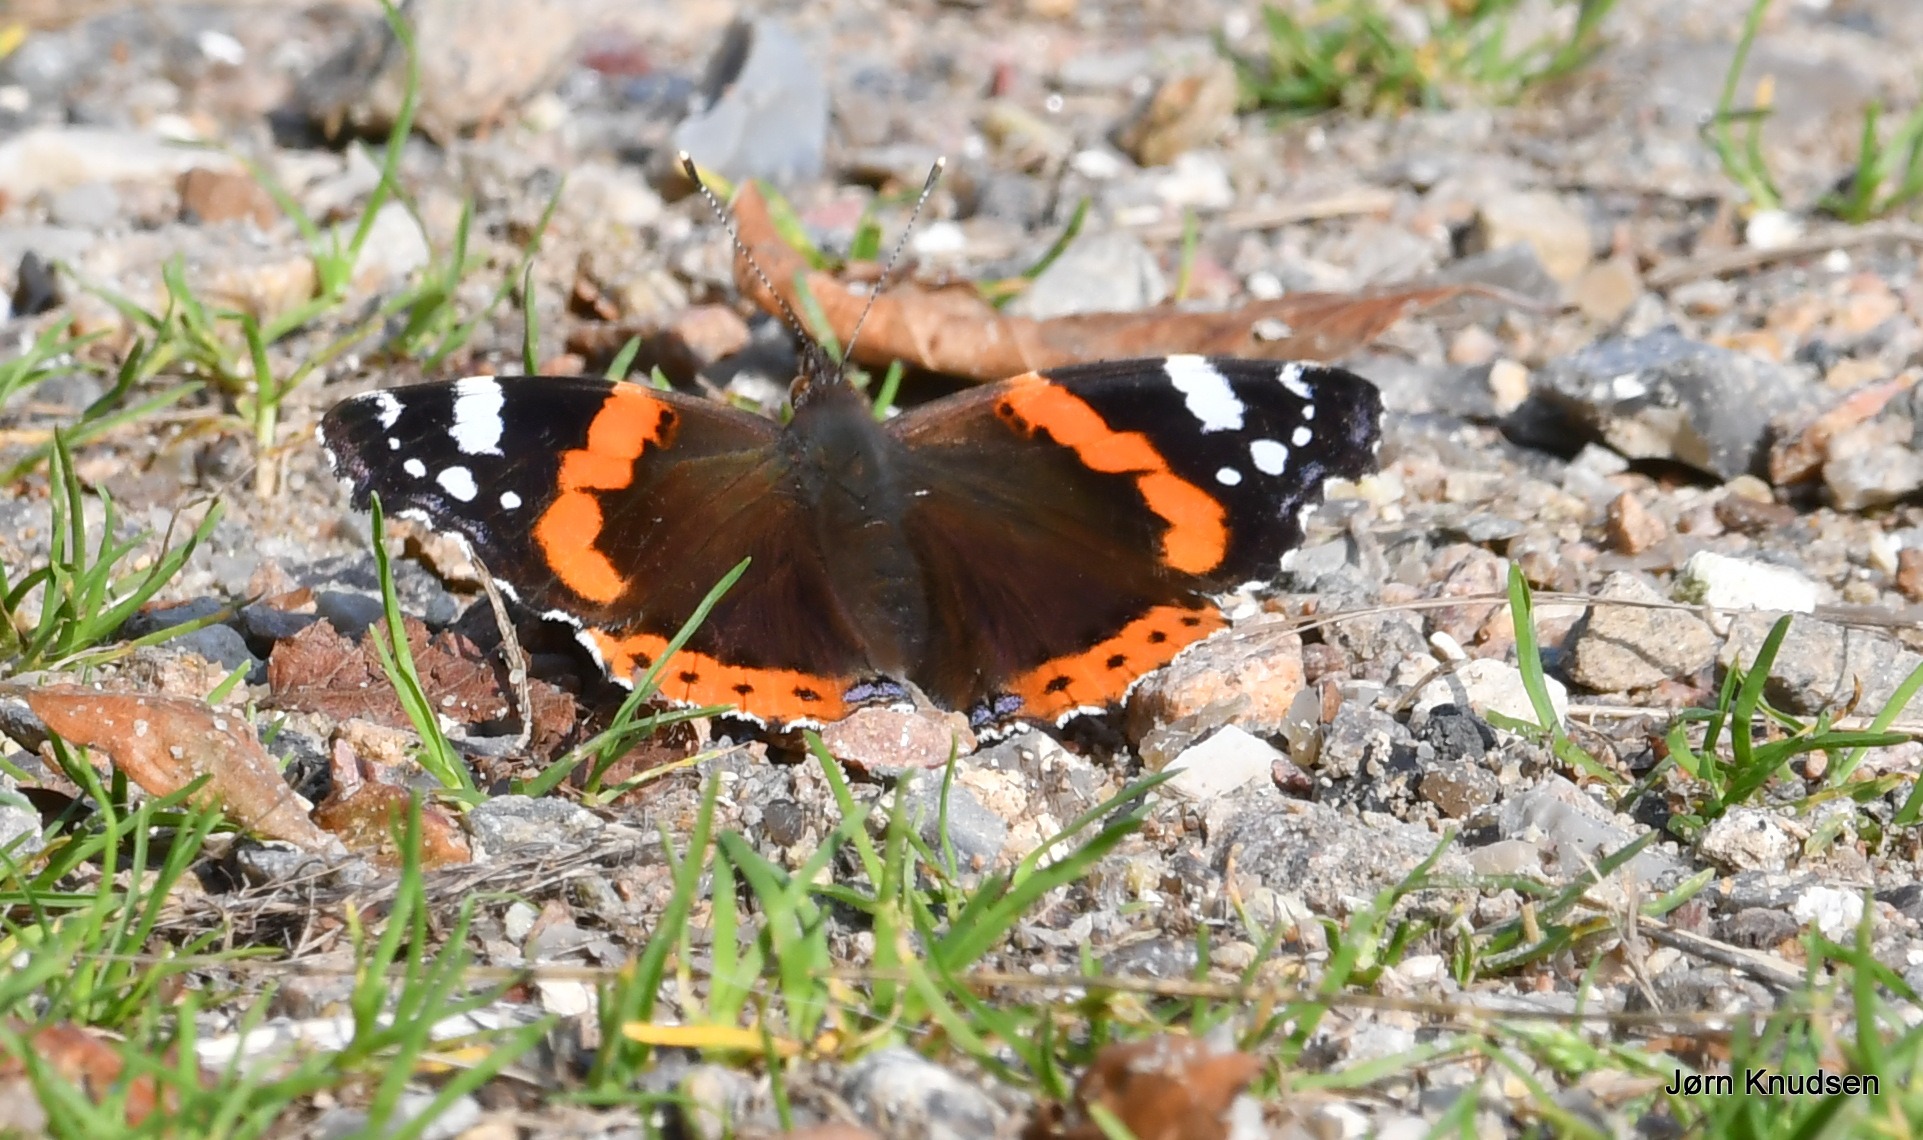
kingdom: Animalia
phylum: Arthropoda
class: Insecta
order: Lepidoptera
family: Nymphalidae
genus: Vanessa
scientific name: Vanessa atalanta
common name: Admiral
